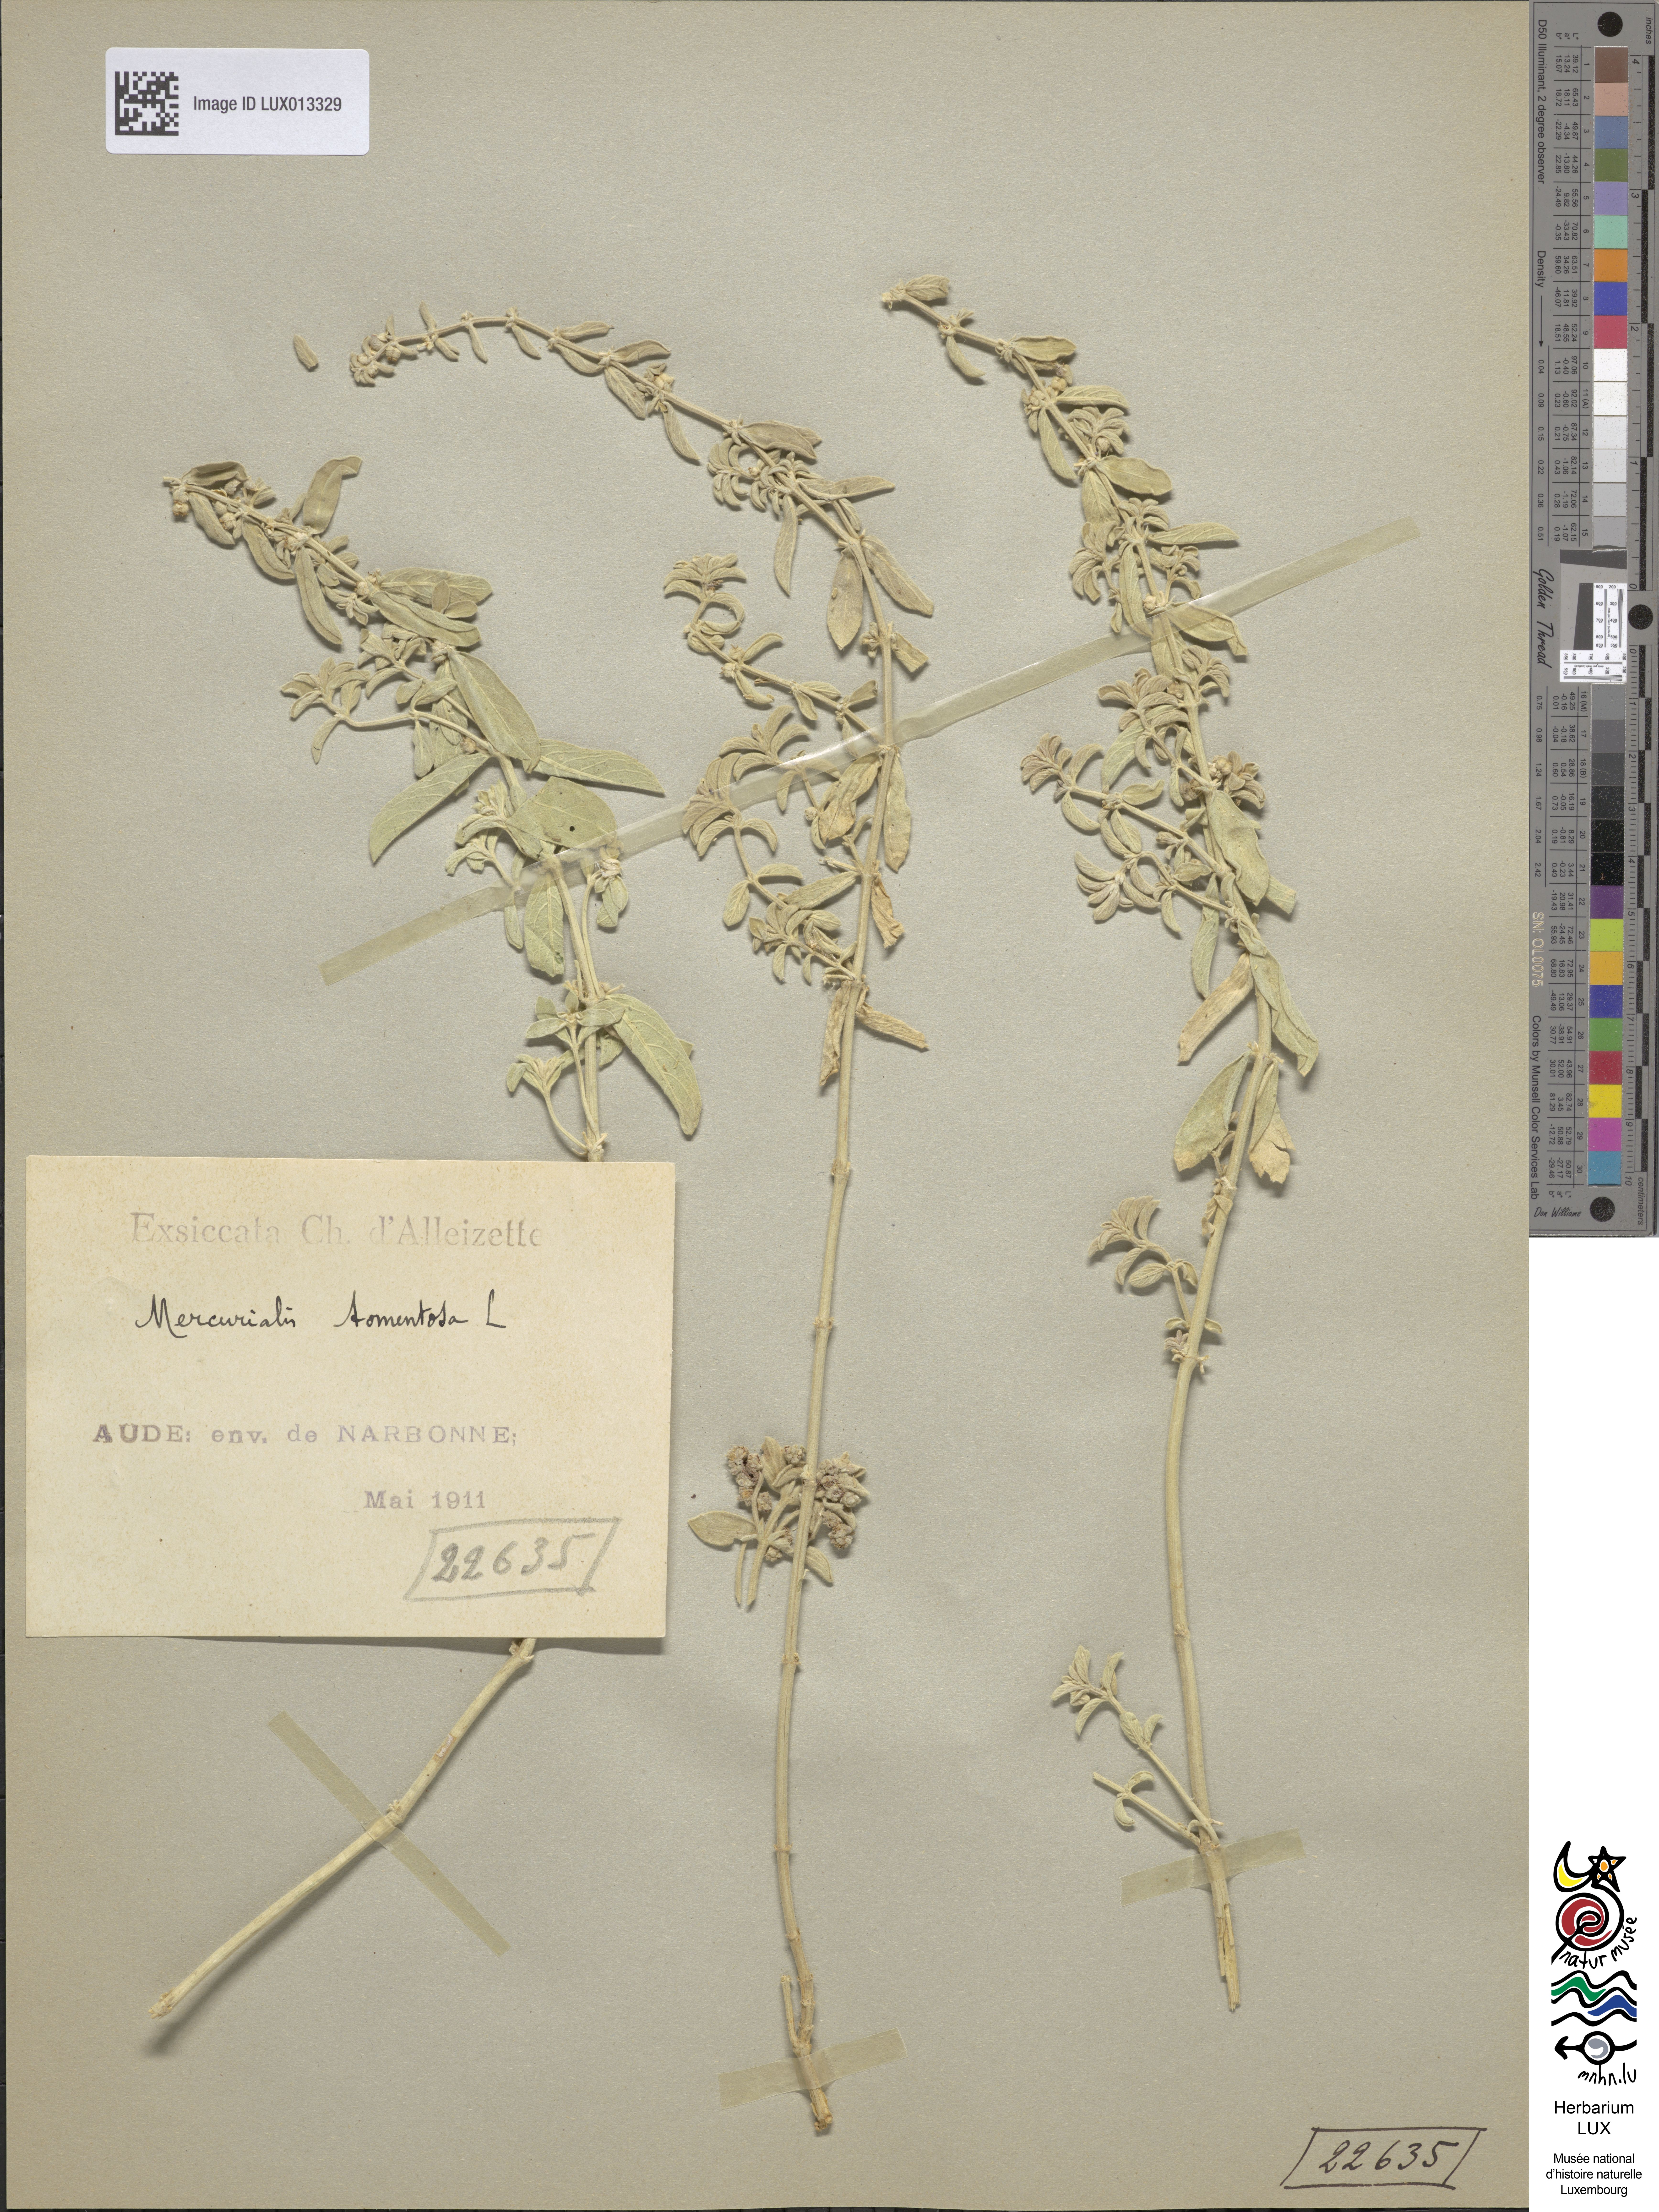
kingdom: Plantae
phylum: Tracheophyta
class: Magnoliopsida
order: Malpighiales
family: Euphorbiaceae
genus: Mercurialis
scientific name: Mercurialis tomentosa
